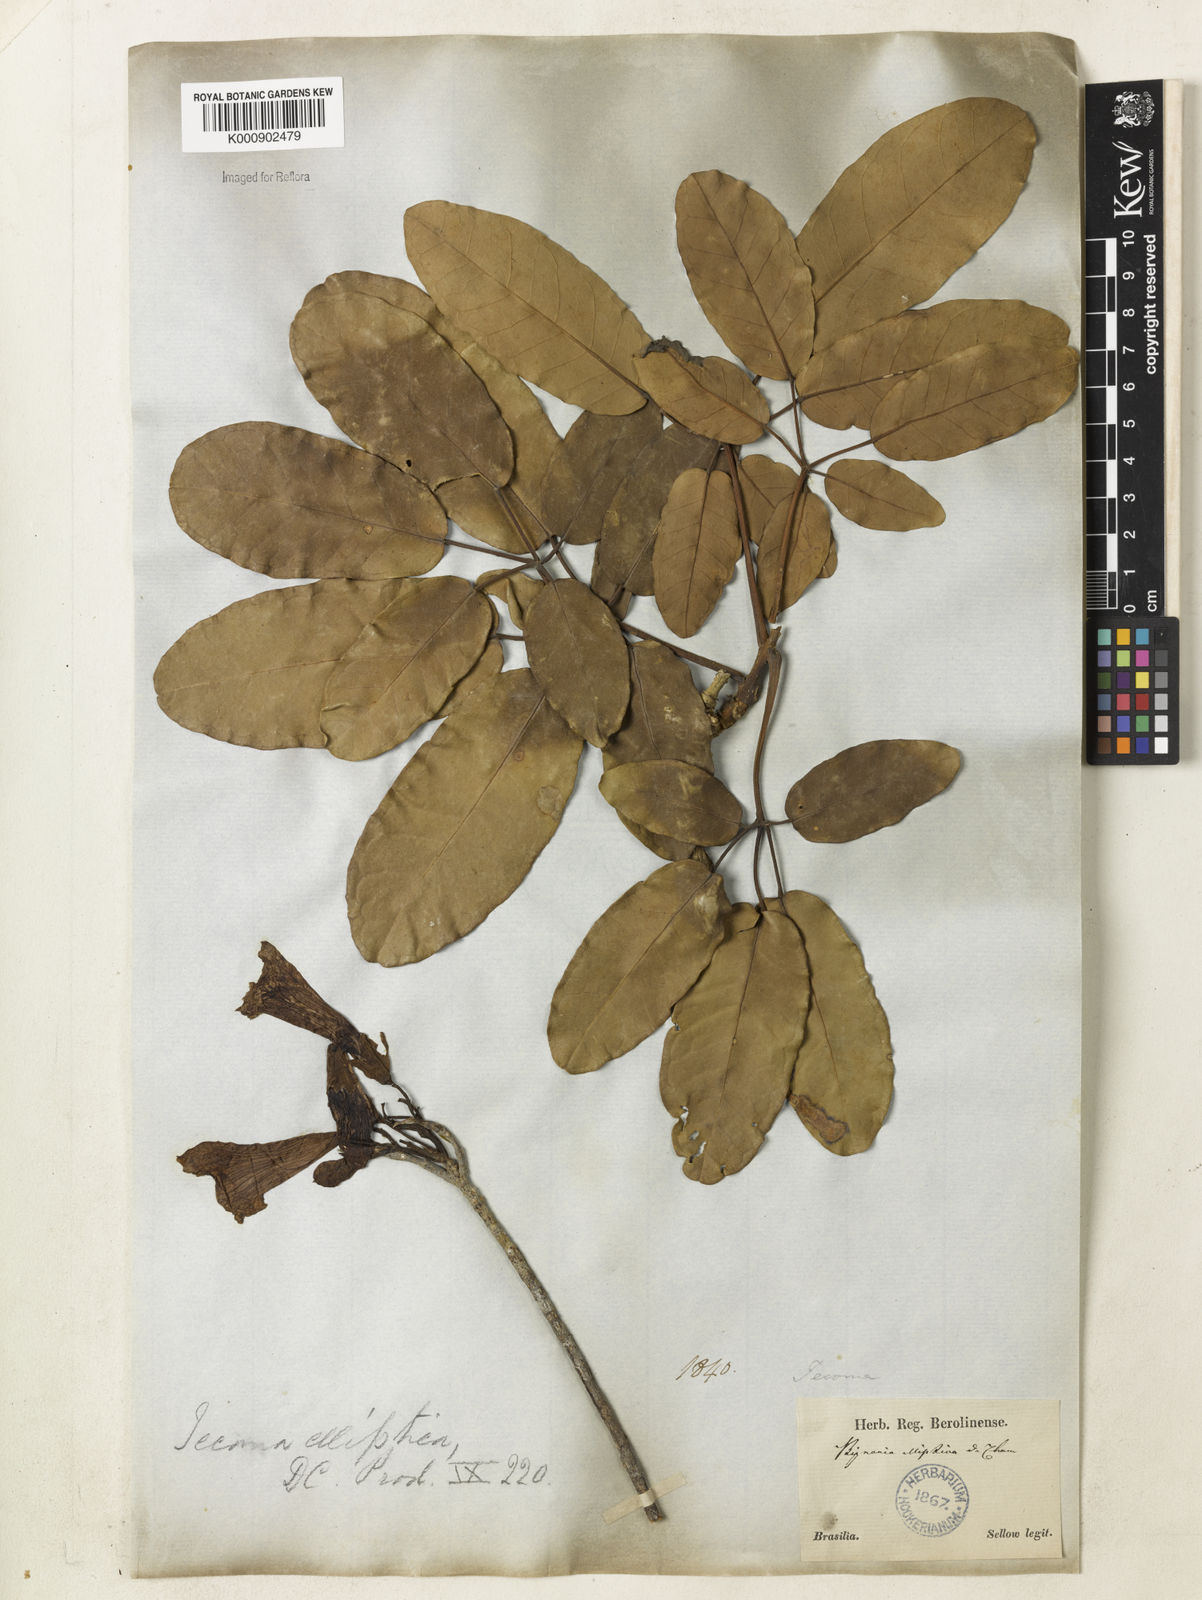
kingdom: Plantae
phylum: Tracheophyta
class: Magnoliopsida
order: Lamiales
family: Bignoniaceae
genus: Tabebuia
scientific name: Tabebuia aurea
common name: Caribbean trumpet-tree
